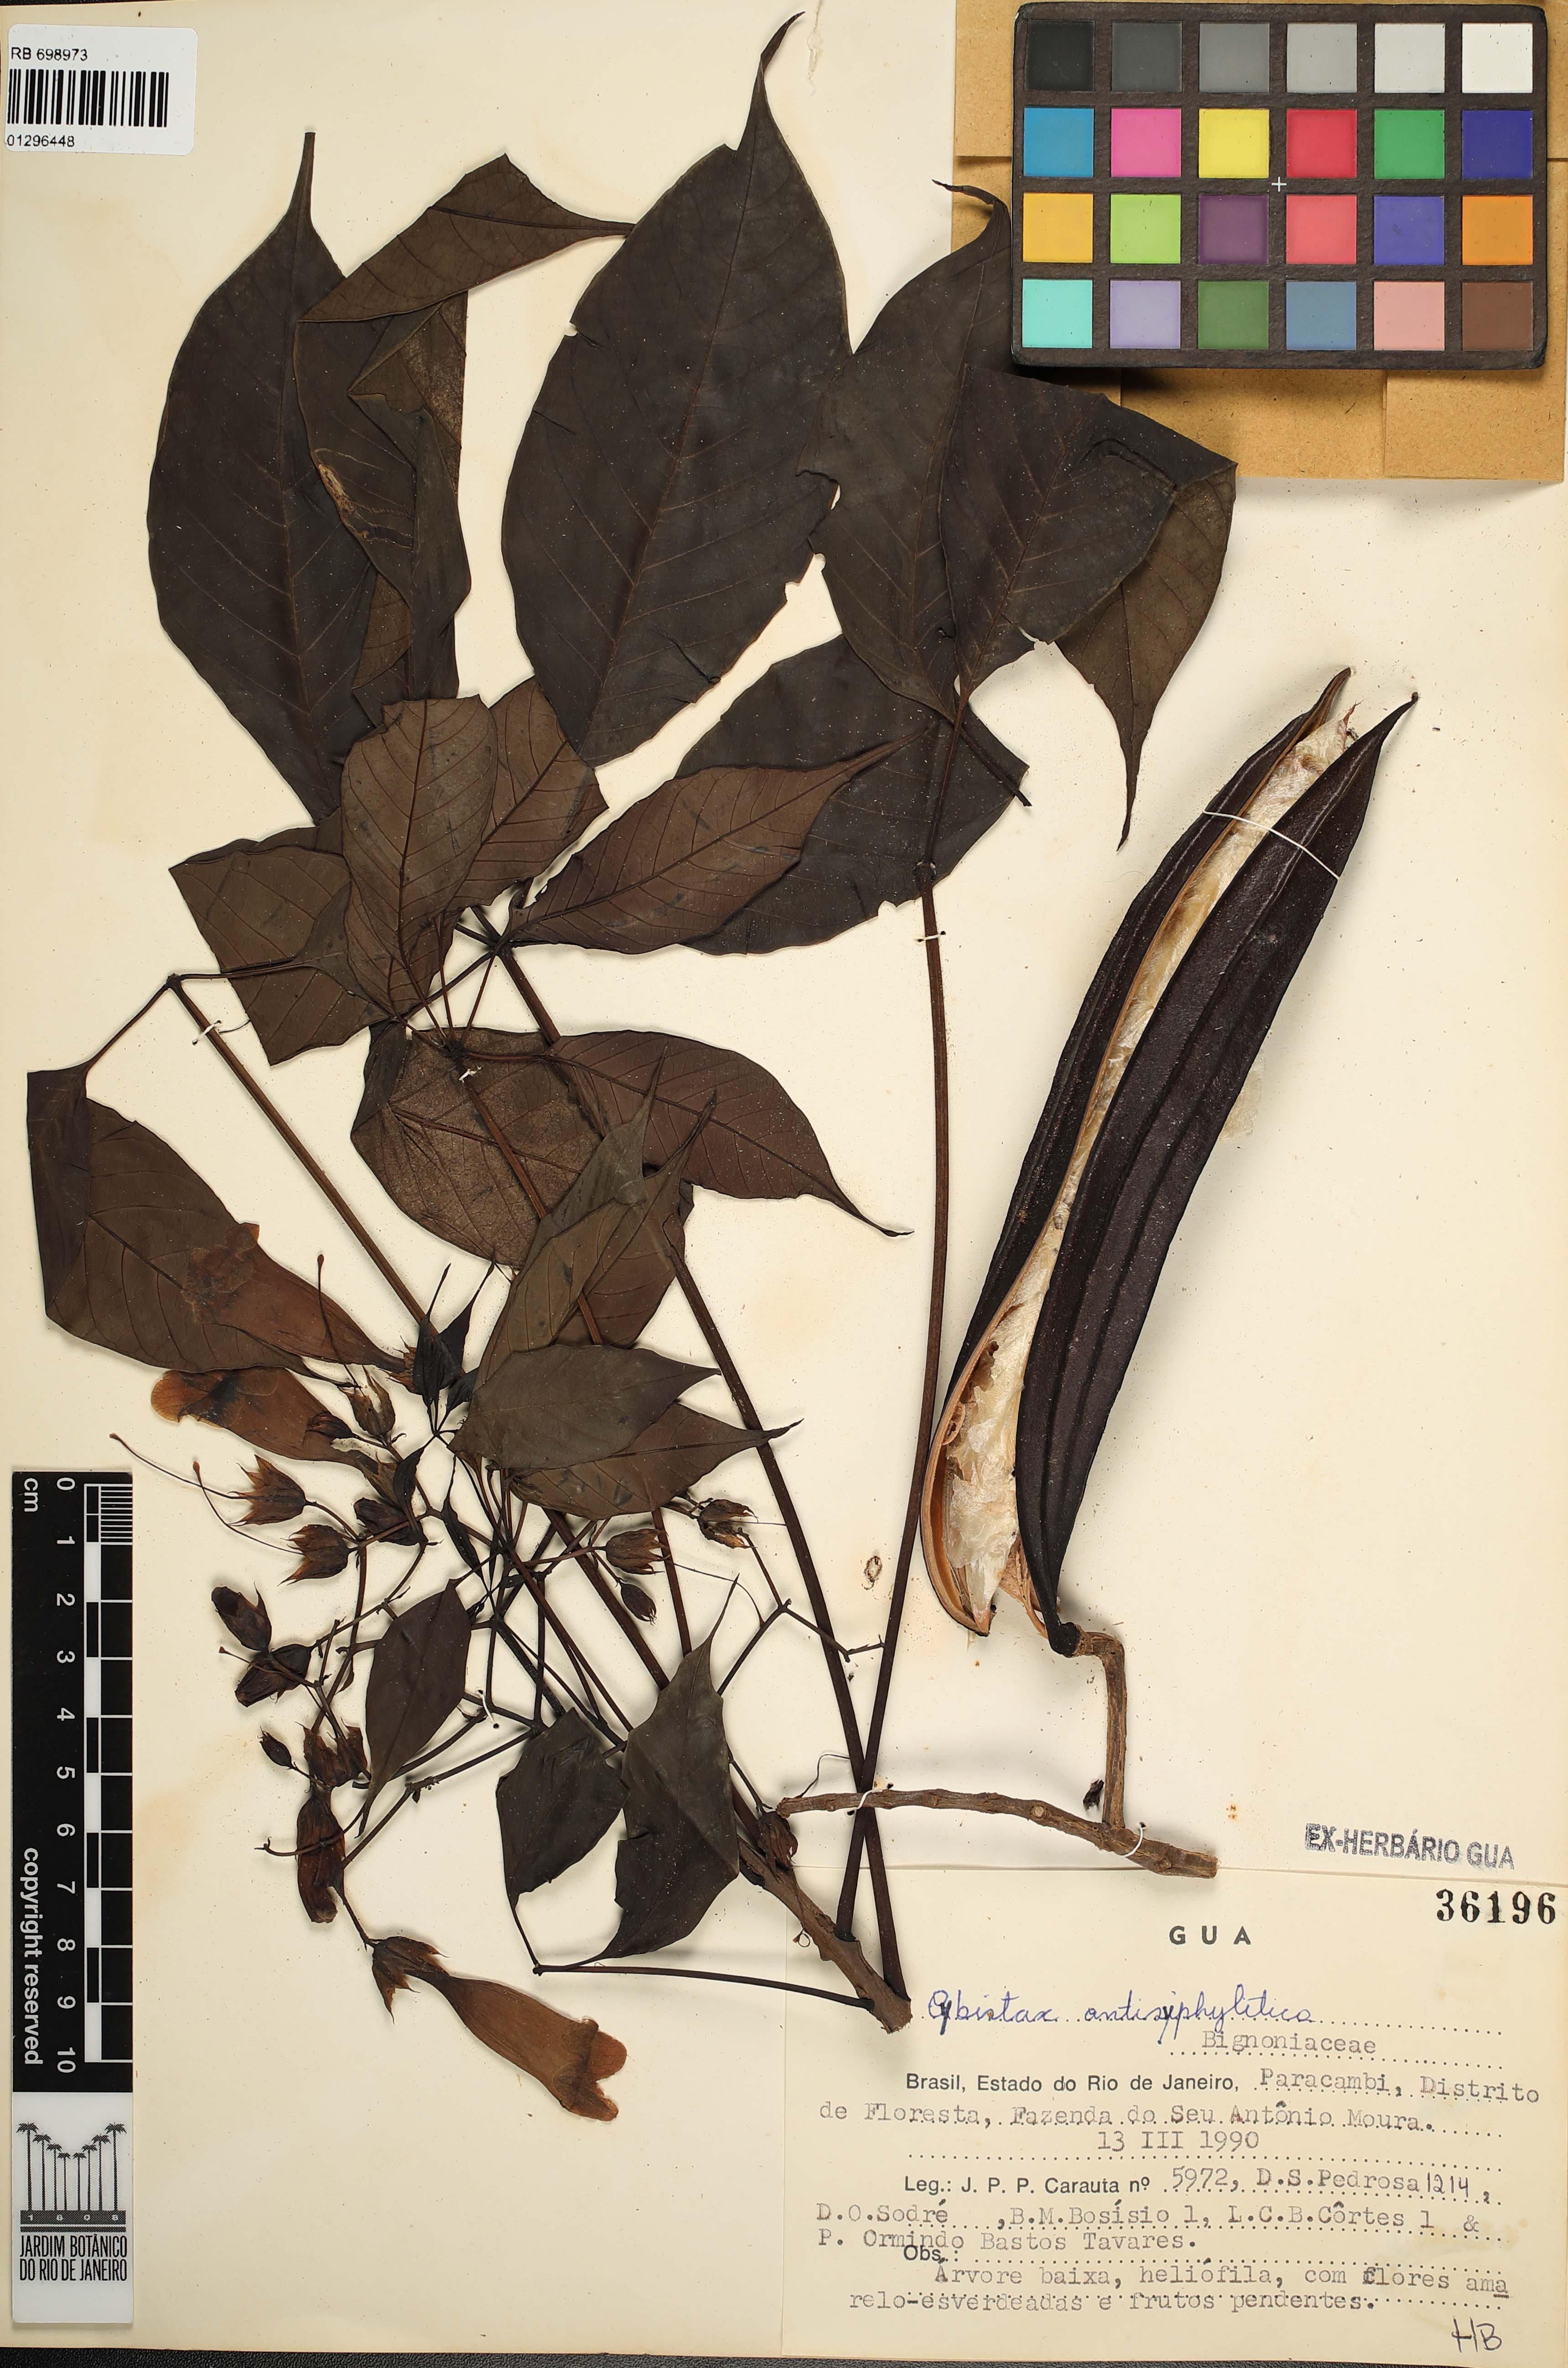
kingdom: Plantae
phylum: Tracheophyta
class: Magnoliopsida
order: Lamiales
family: Bignoniaceae
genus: Cybistax
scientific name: Cybistax antisyphilitica
